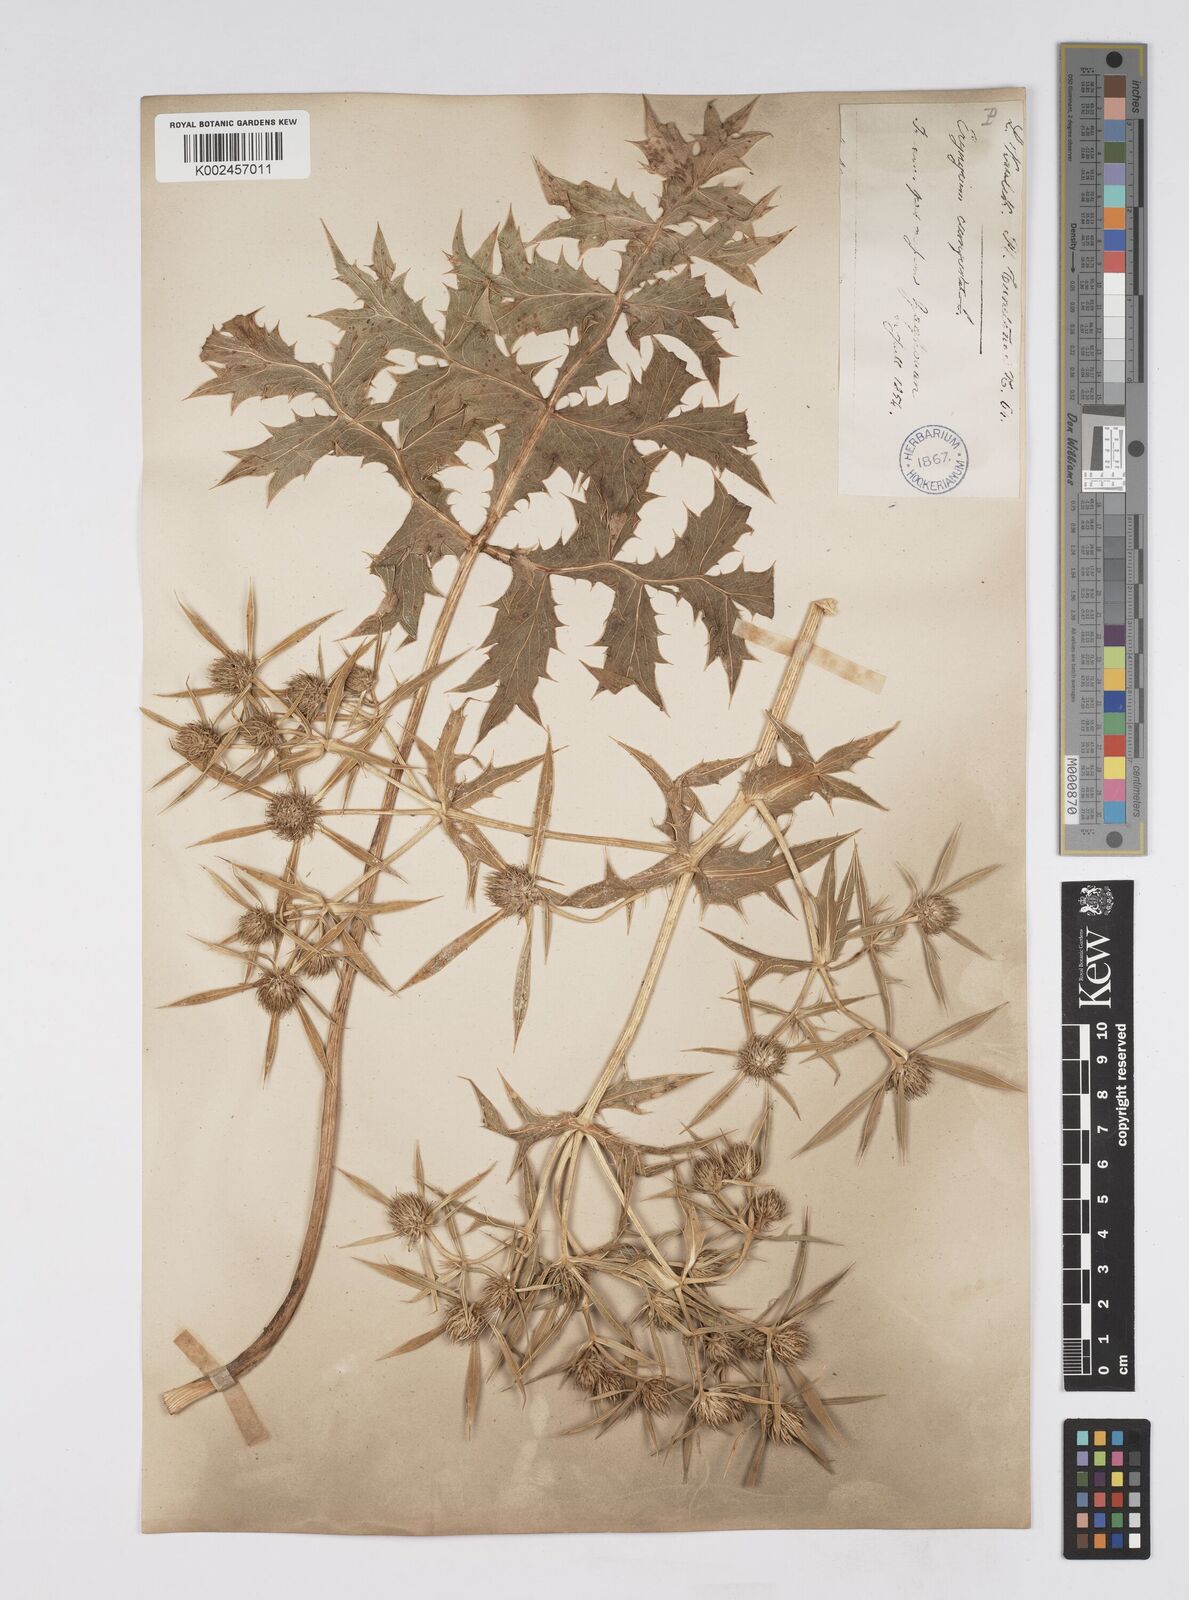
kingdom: Plantae
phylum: Tracheophyta
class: Magnoliopsida
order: Apiales
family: Apiaceae
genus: Eryngium
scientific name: Eryngium campestre
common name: Field eryngo
